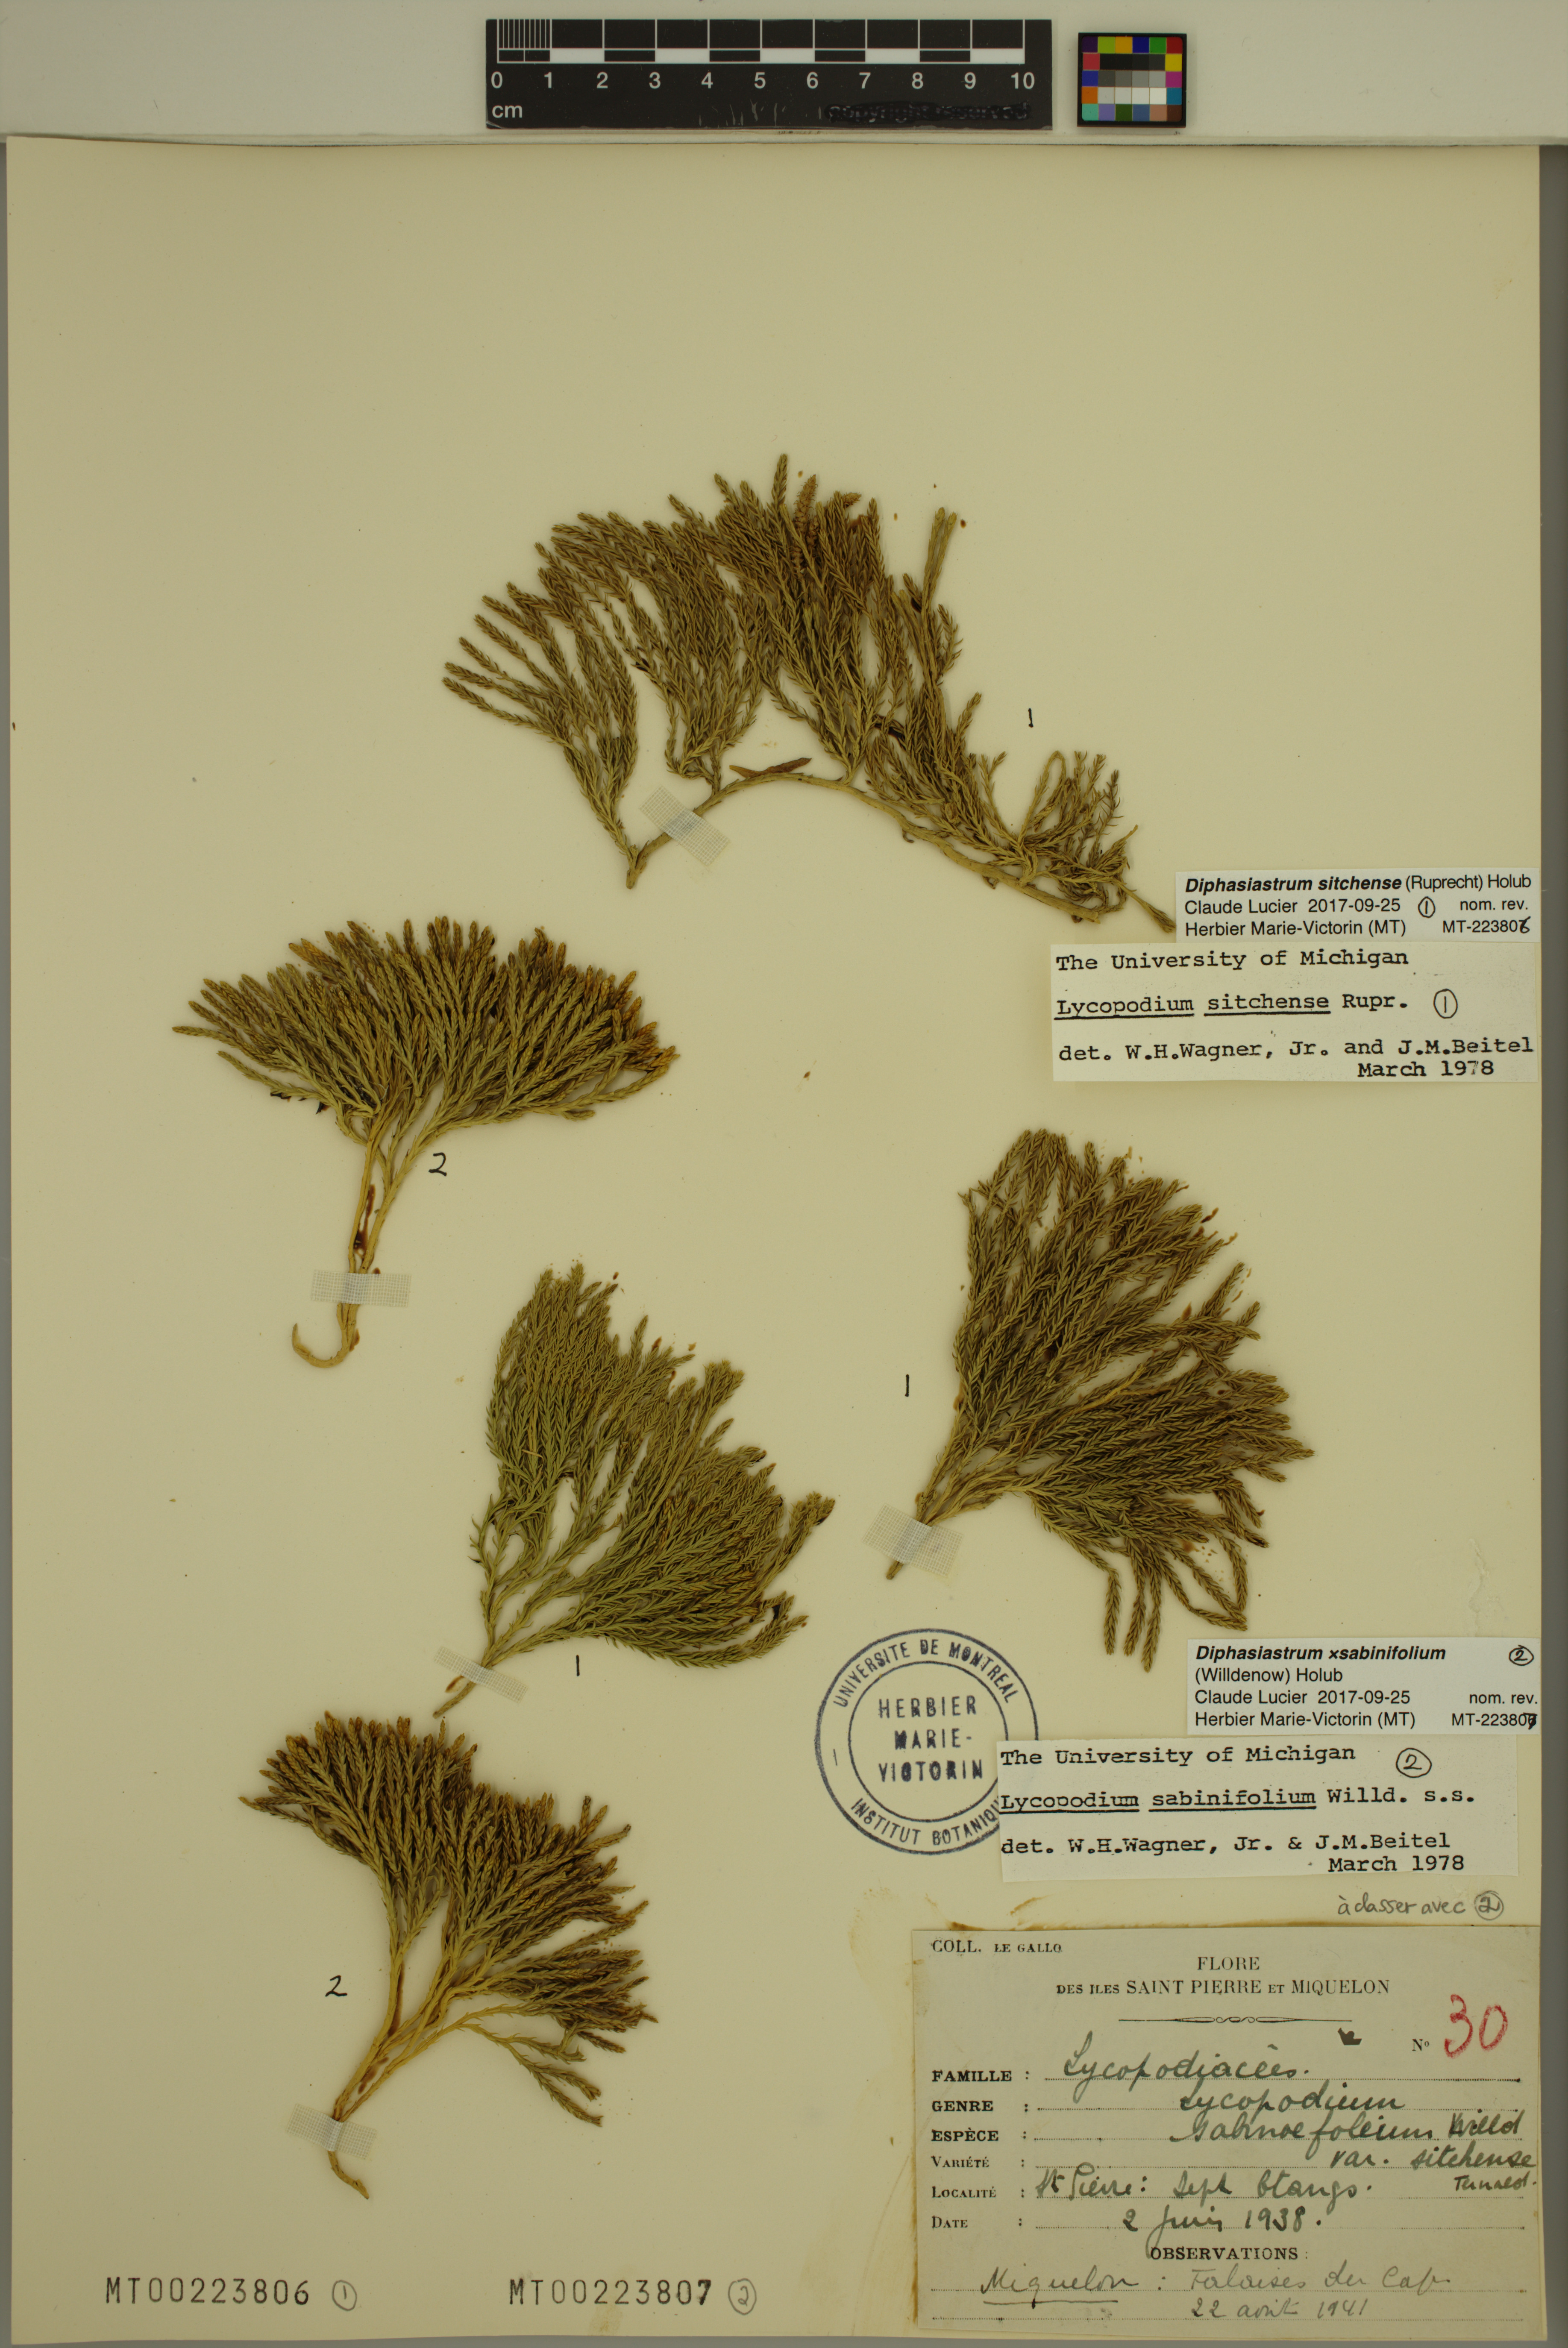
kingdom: Plantae
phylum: Tracheophyta
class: Lycopodiopsida
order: Lycopodiales
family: Lycopodiaceae
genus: Diphasiastrum
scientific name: Diphasiastrum sabinifolium
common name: Juniper clubmoss
